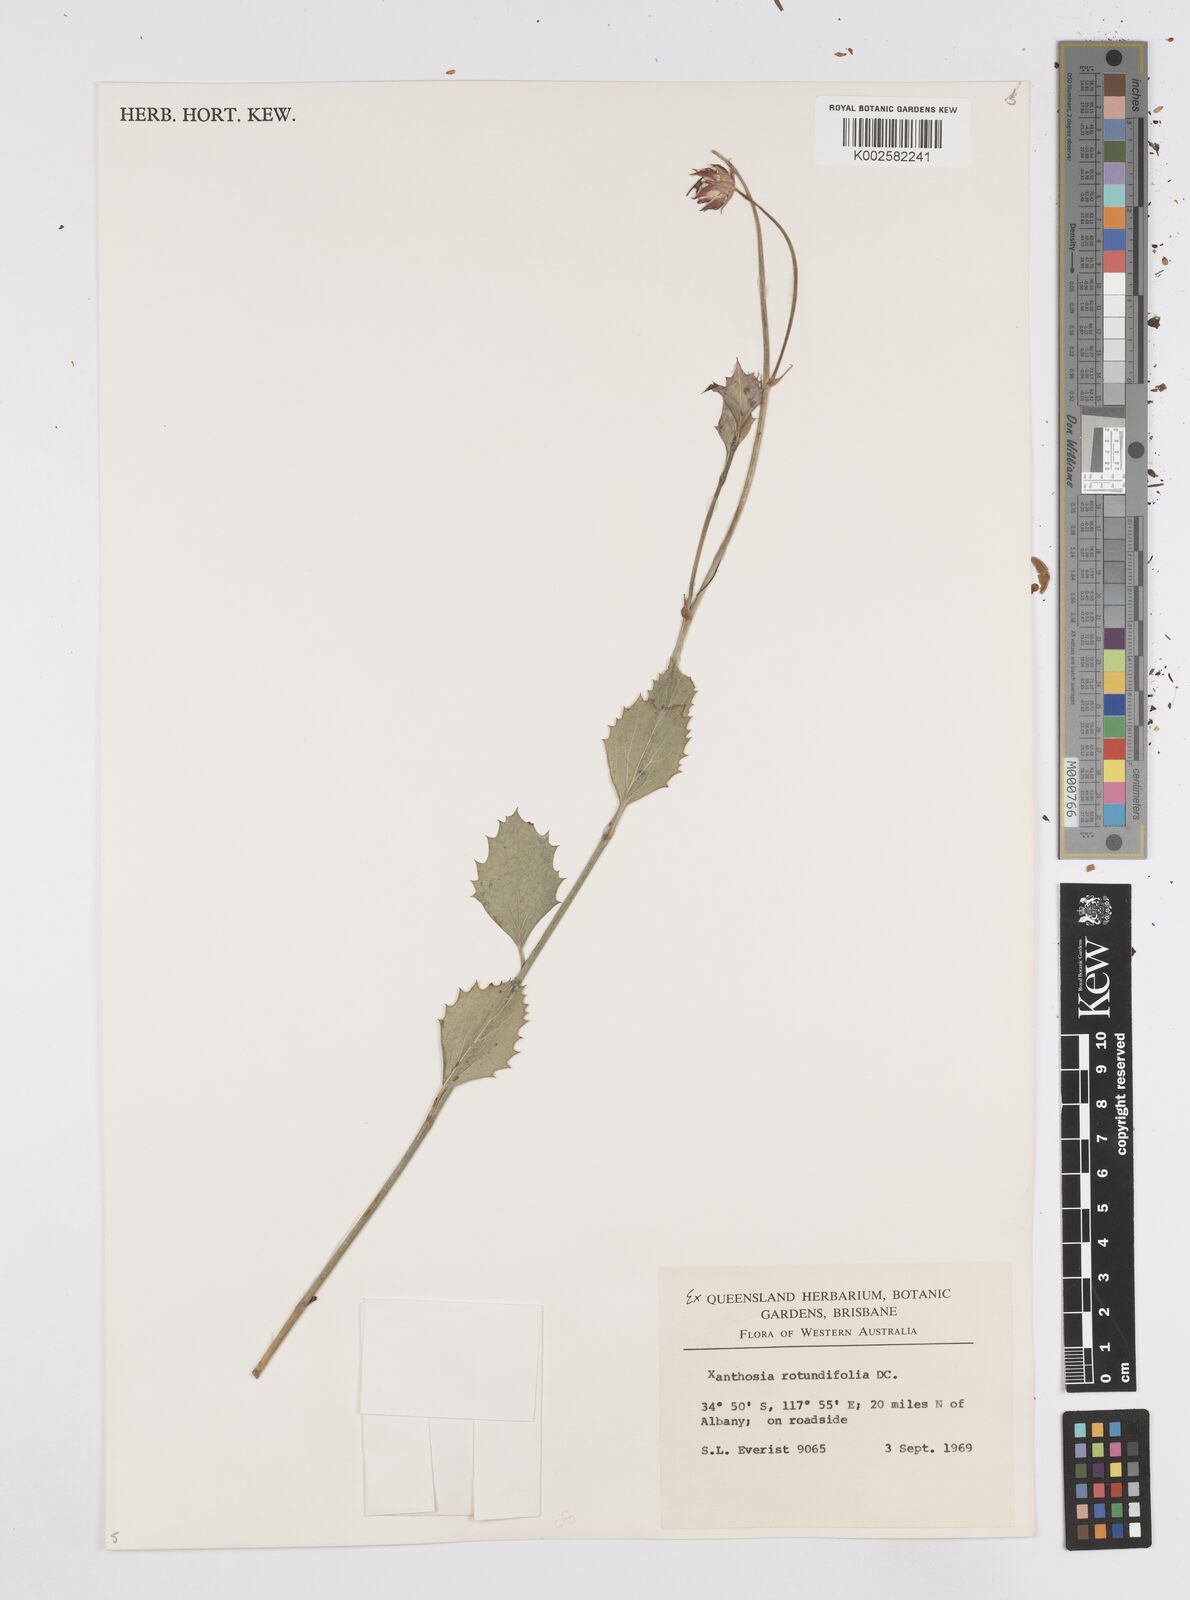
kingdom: Plantae
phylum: Tracheophyta
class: Magnoliopsida
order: Apiales
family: Apiaceae
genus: Xanthosia
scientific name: Xanthosia rotundifolia
